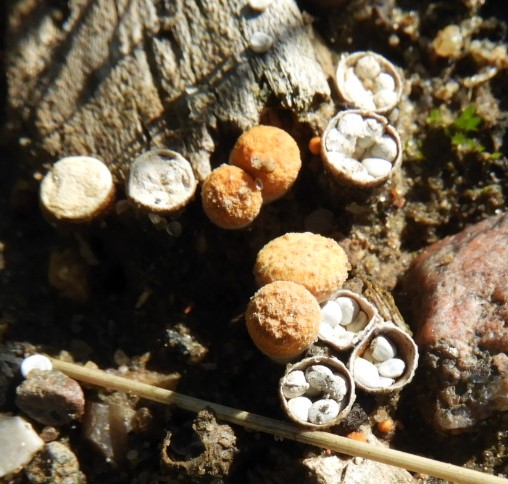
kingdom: Fungi
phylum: Basidiomycota
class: Agaricomycetes
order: Agaricales
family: Nidulariaceae
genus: Crucibulum
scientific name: Crucibulum crucibuliforme
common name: krukkesvamp
